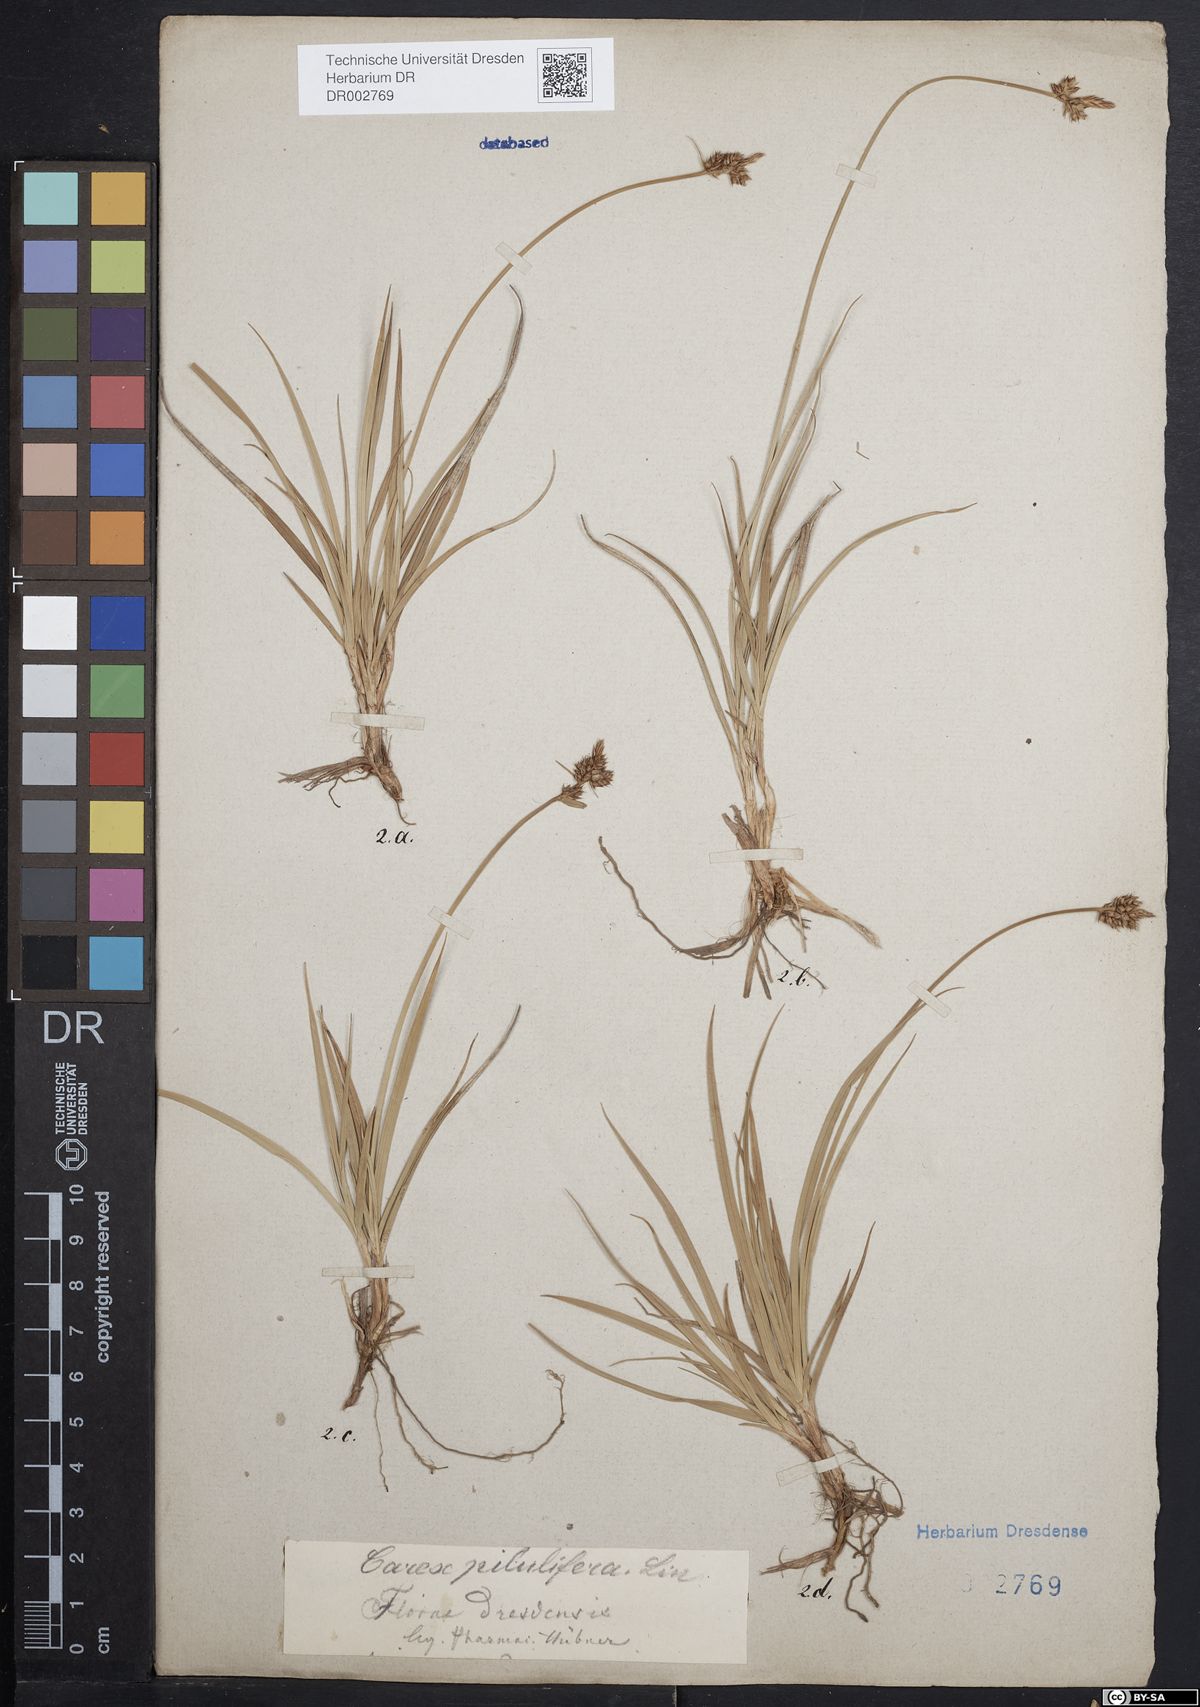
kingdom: Plantae
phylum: Tracheophyta
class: Liliopsida
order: Poales
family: Cyperaceae
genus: Carex
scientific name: Carex caryophyllea
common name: Spring sedge
